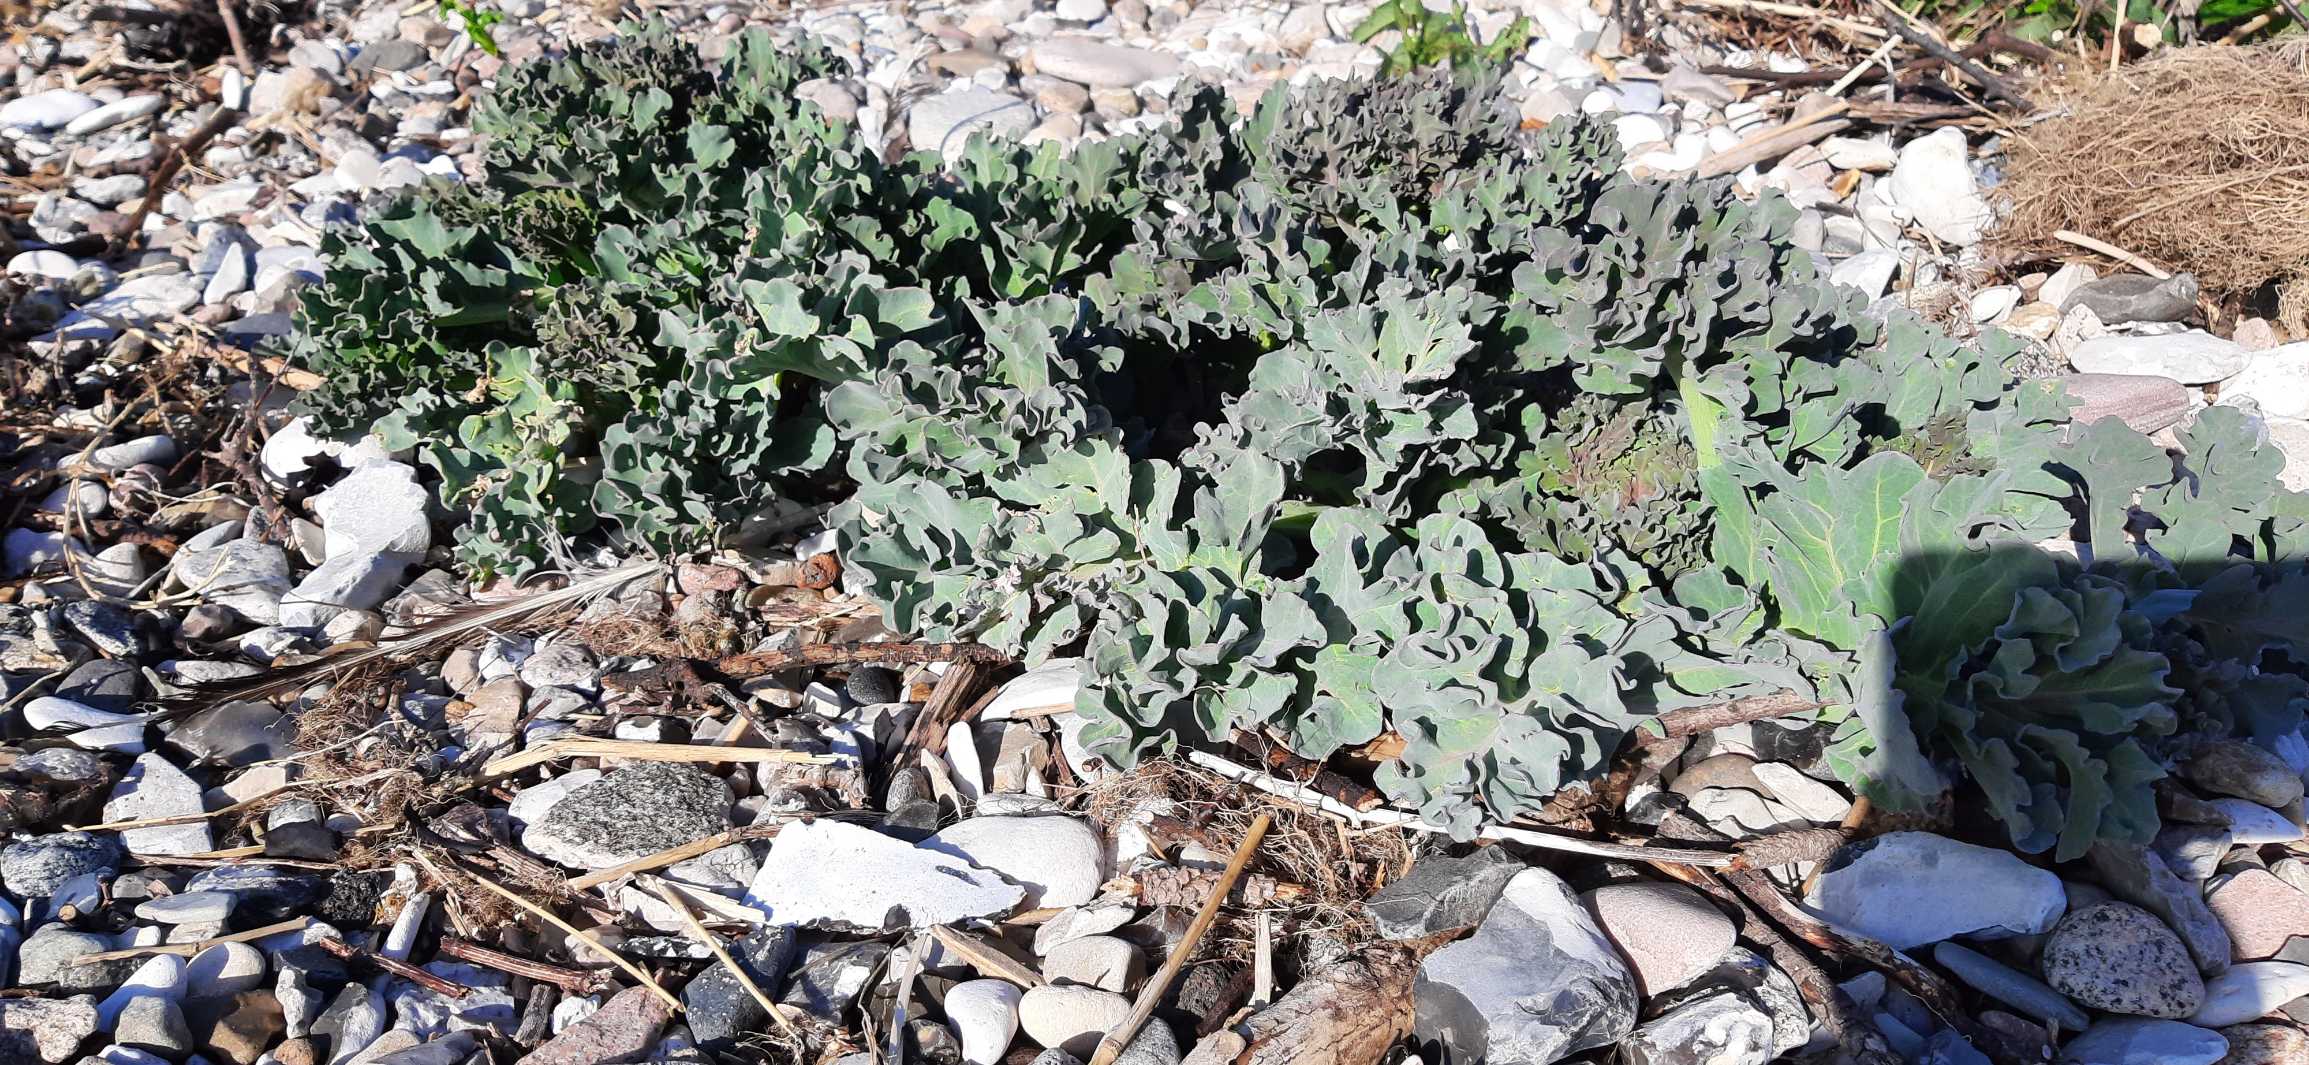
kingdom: Plantae
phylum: Tracheophyta
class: Magnoliopsida
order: Brassicales
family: Brassicaceae
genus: Crambe
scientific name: Crambe maritima
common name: Strandkål
